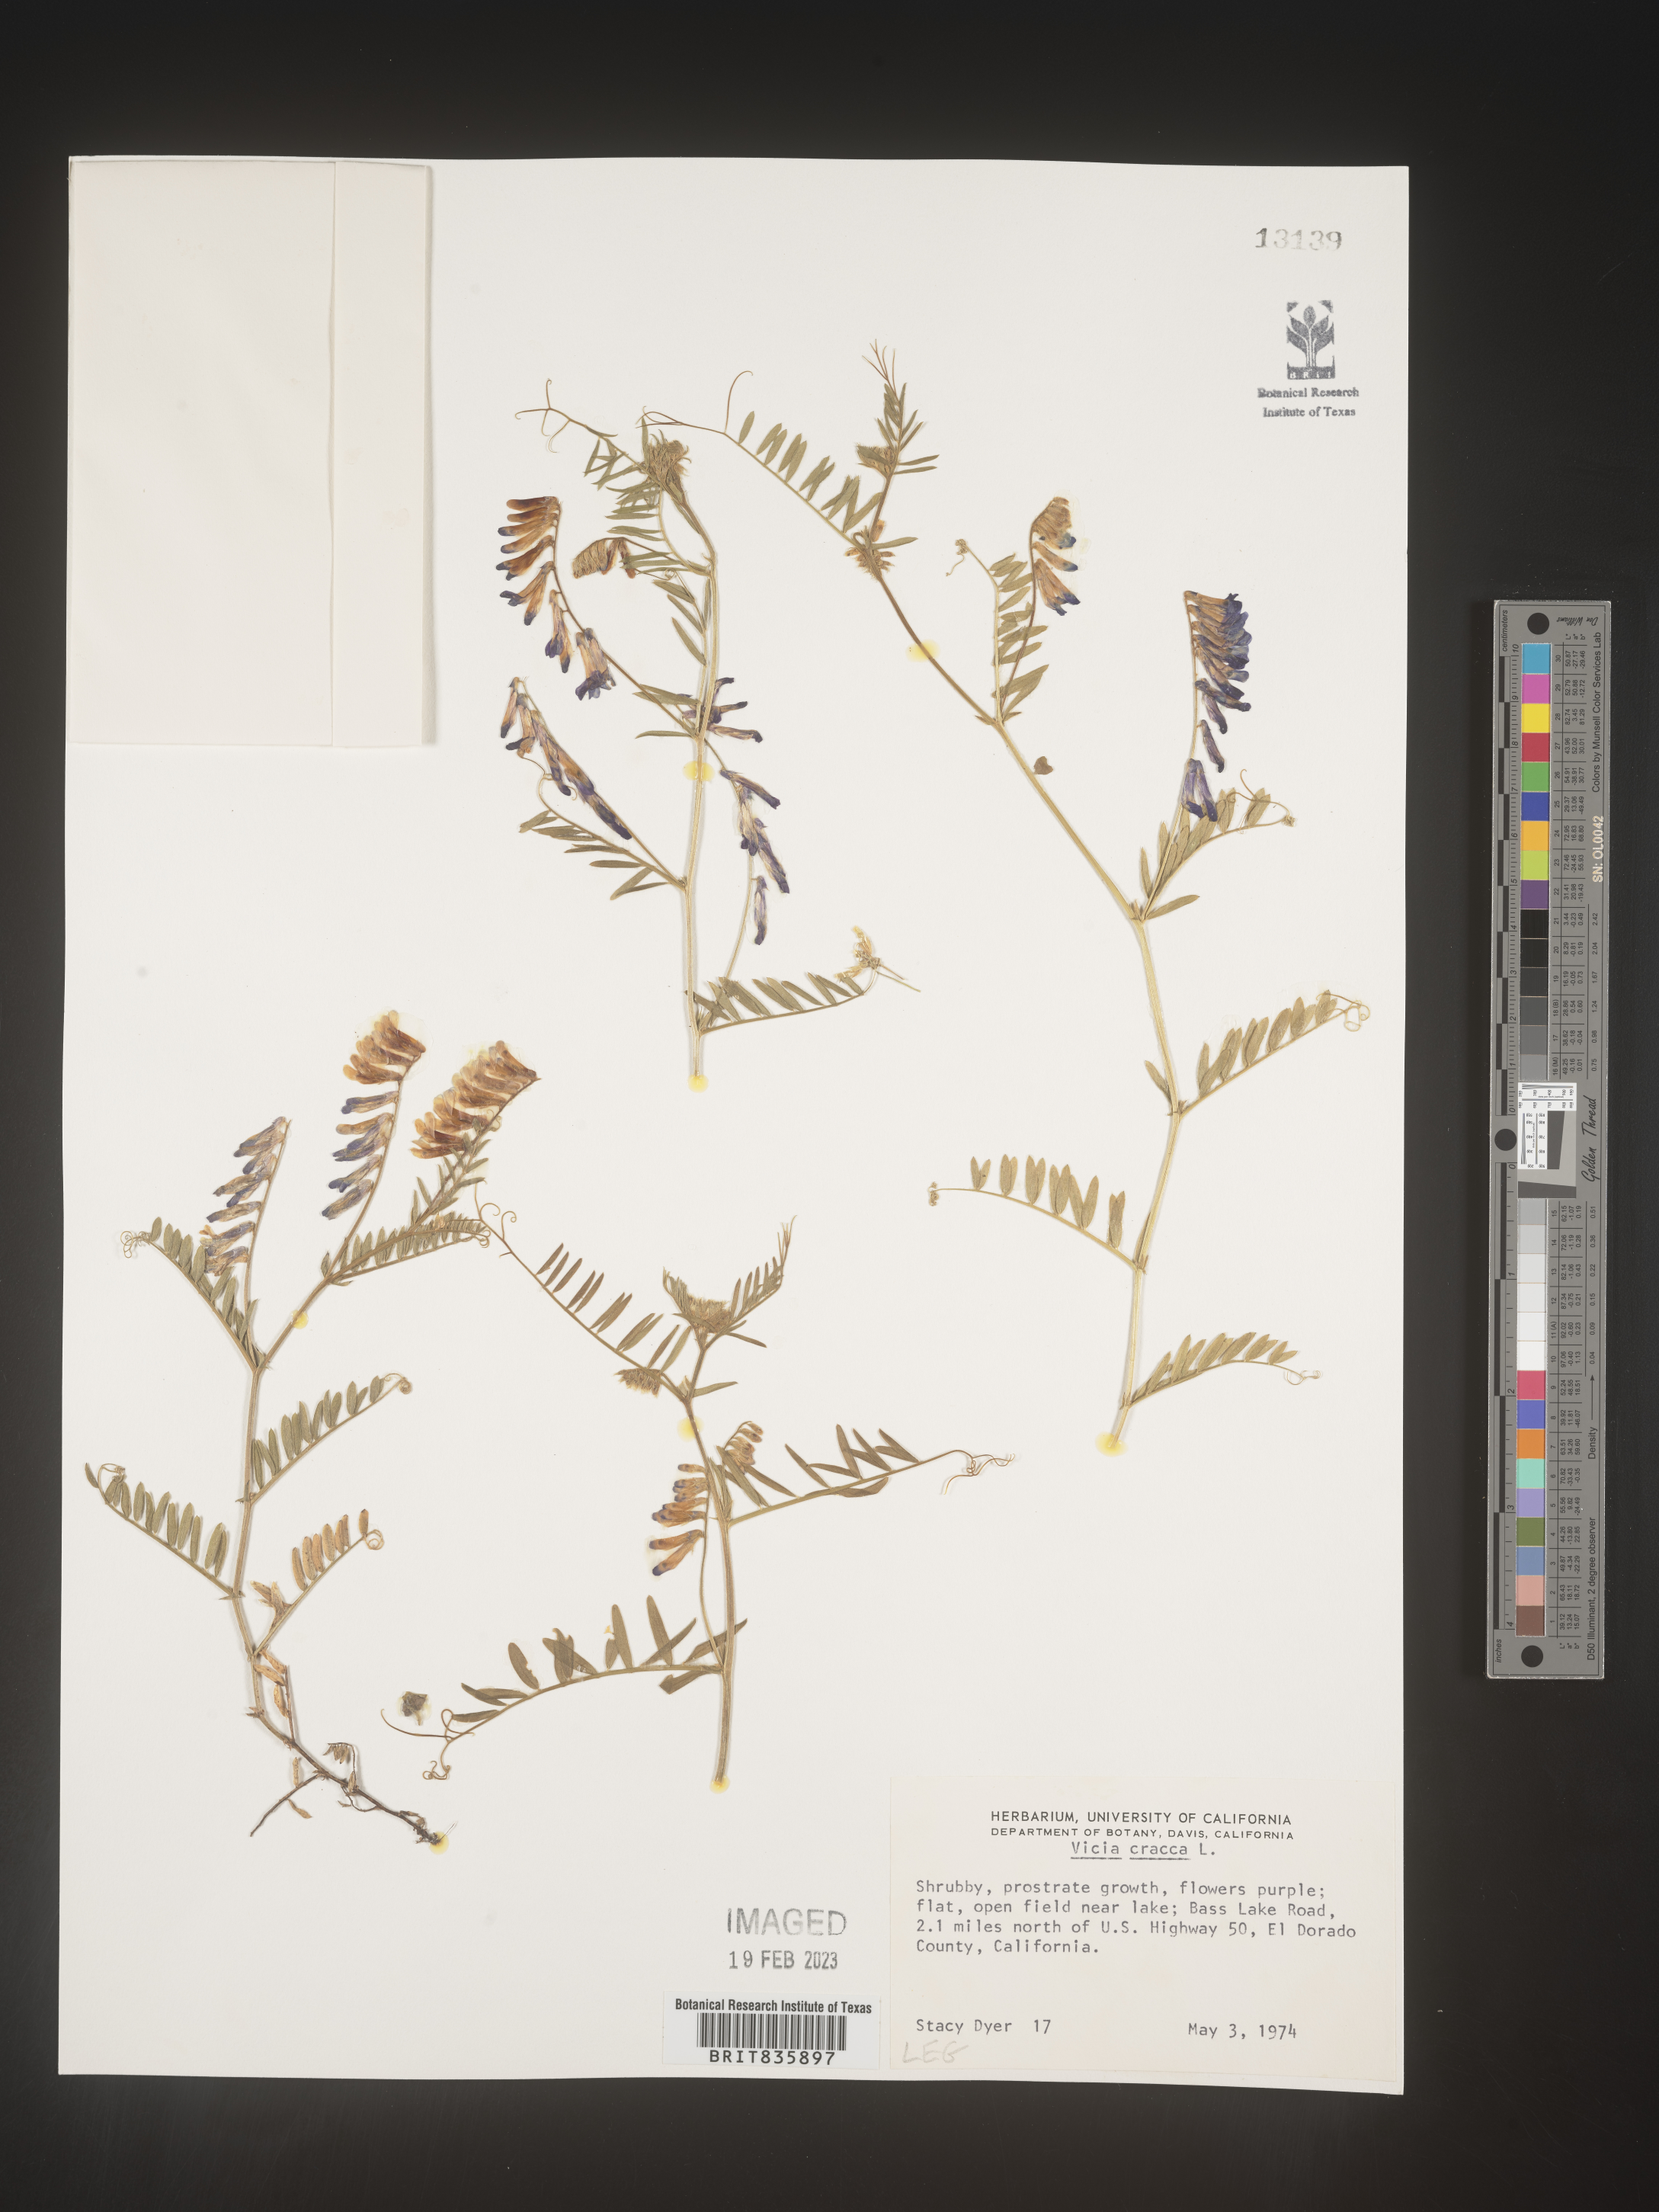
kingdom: Plantae
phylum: Tracheophyta
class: Magnoliopsida
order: Fabales
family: Fabaceae
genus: Vicia
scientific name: Vicia cracca
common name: Bird vetch
